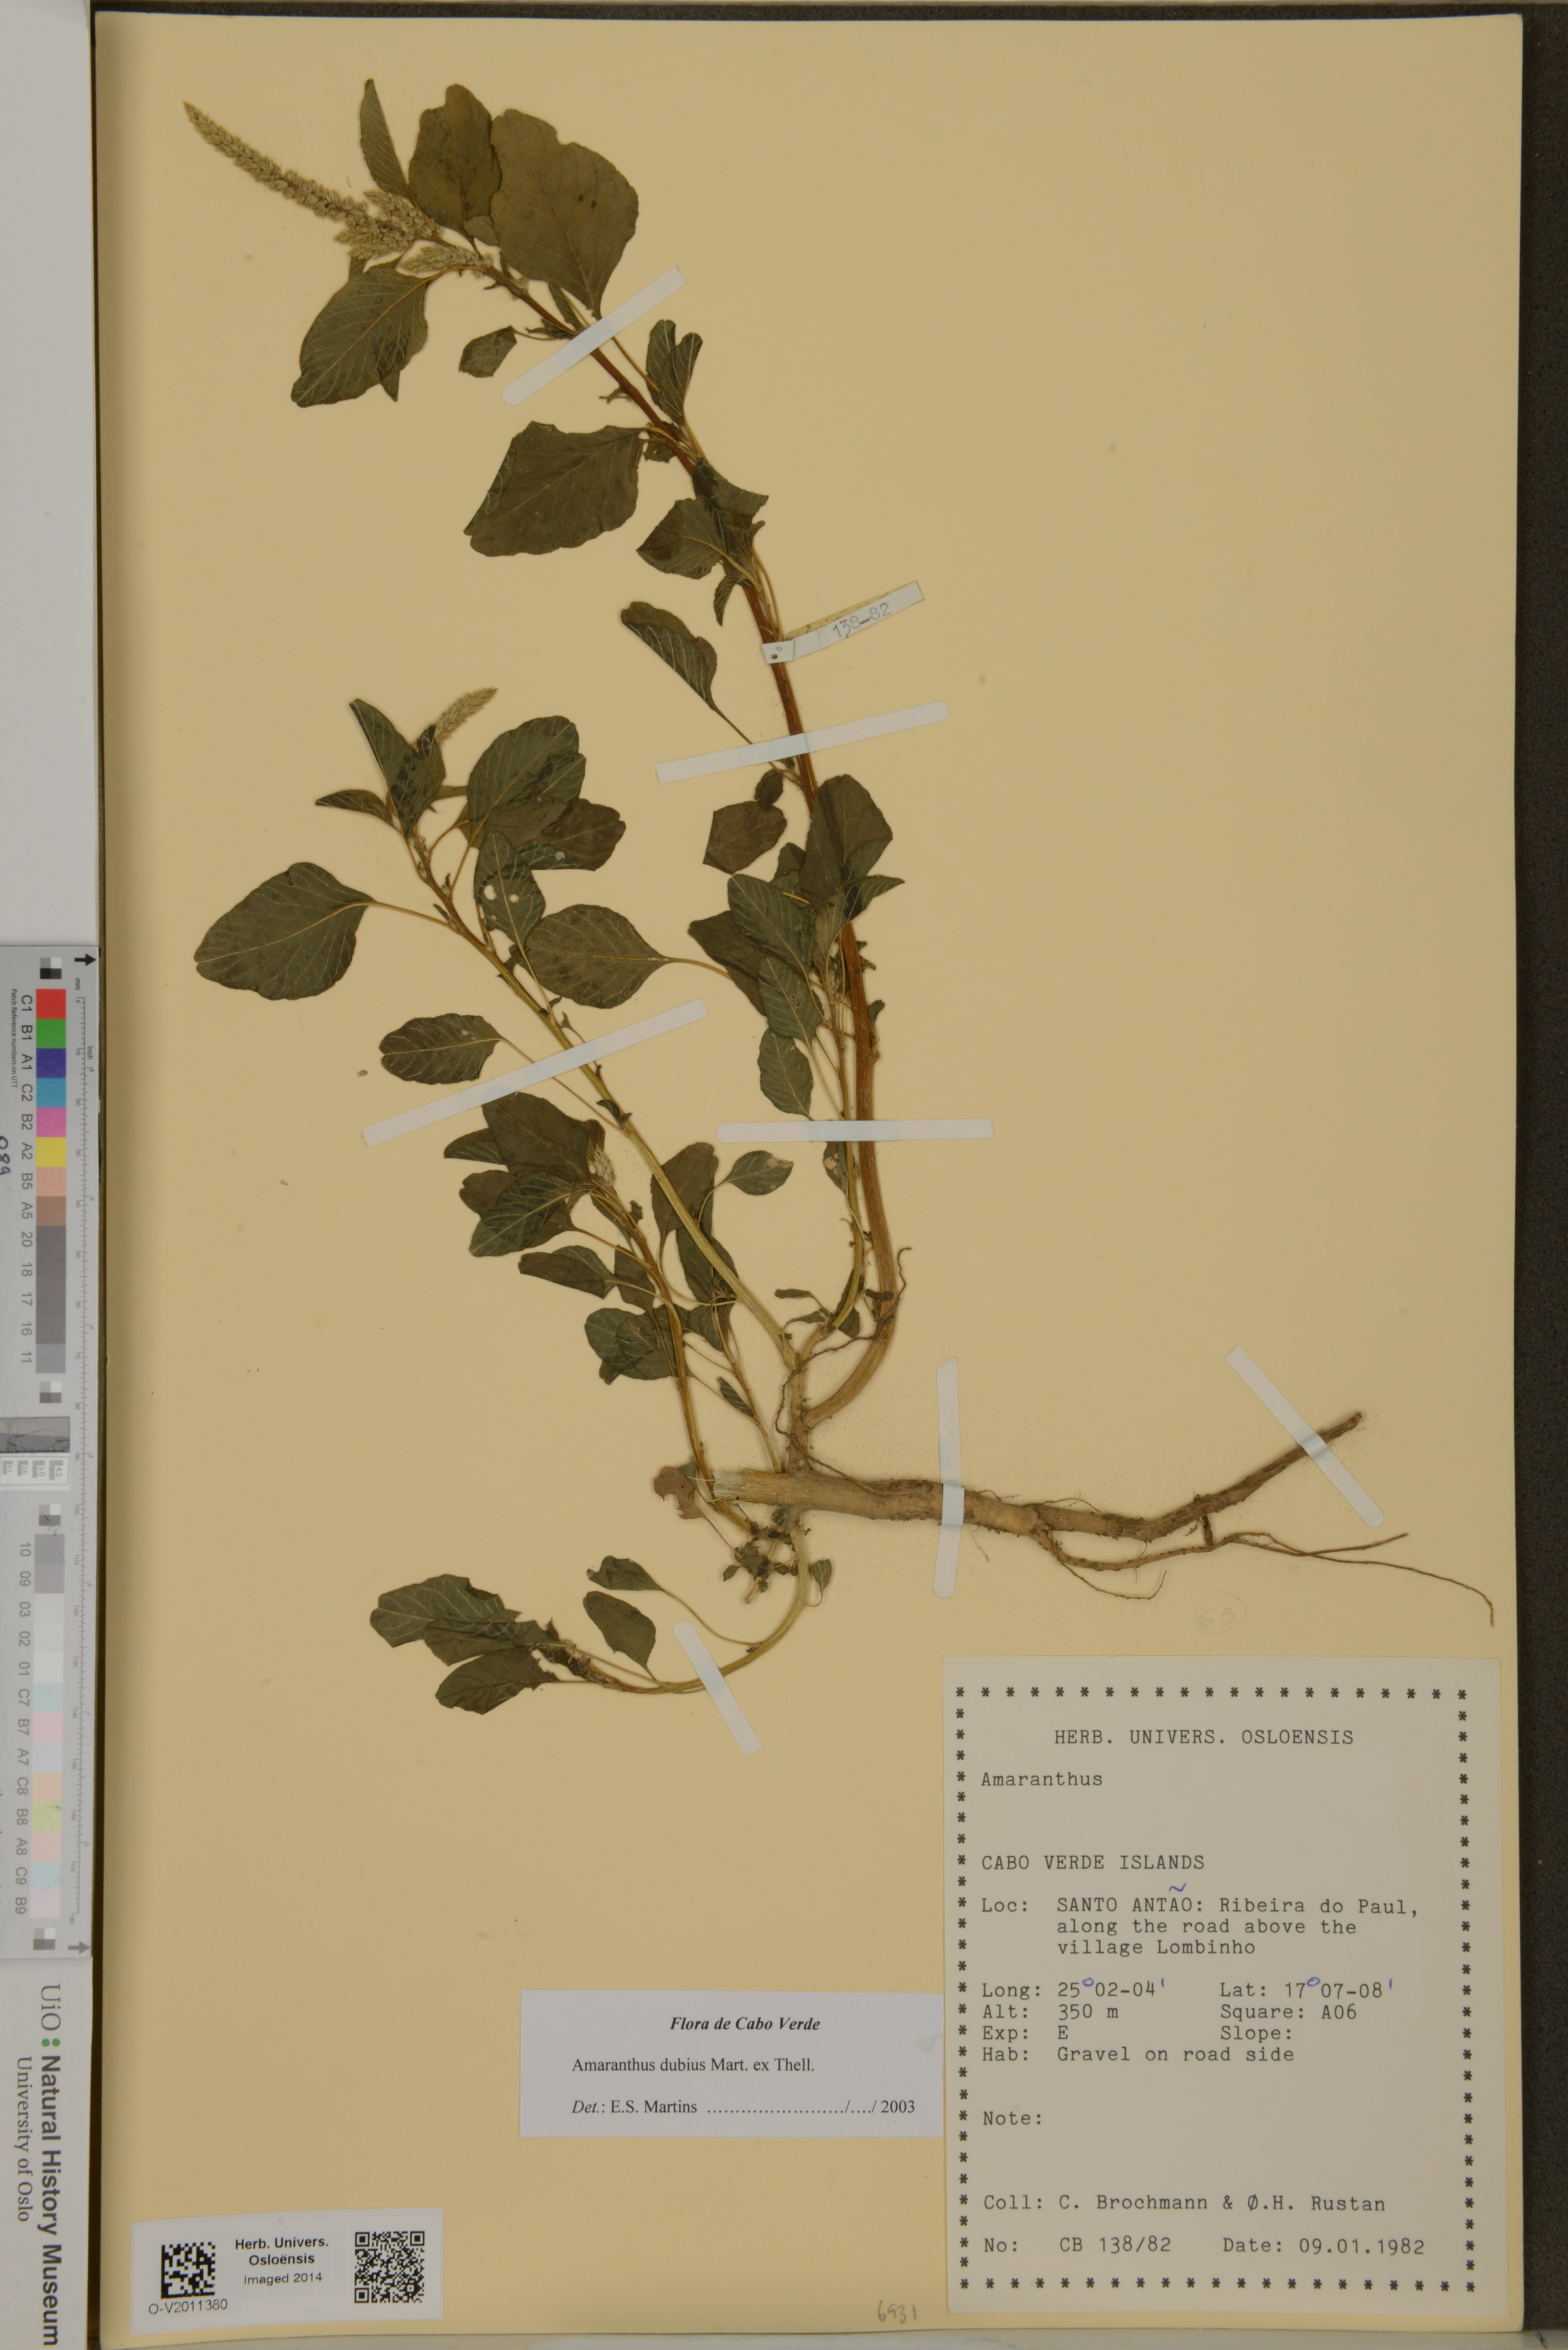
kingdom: Plantae
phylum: Tracheophyta
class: Magnoliopsida
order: Caryophyllales
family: Amaranthaceae
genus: Amaranthus
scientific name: Amaranthus dubius
